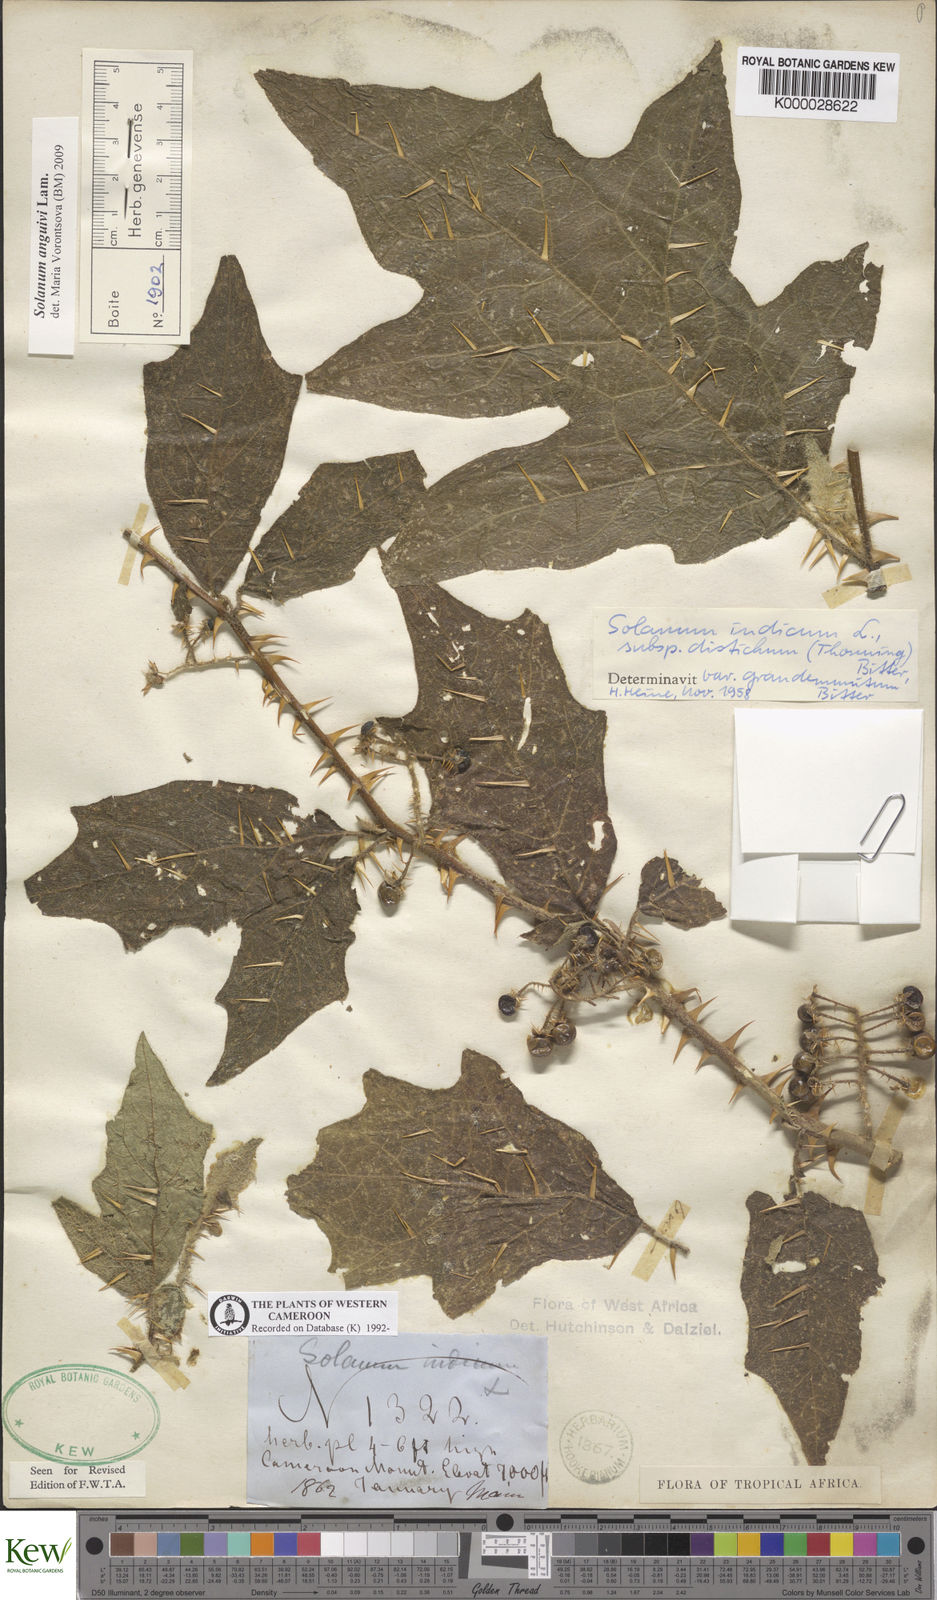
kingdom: Plantae
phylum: Tracheophyta
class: Magnoliopsida
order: Solanales
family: Solanaceae
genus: Solanum
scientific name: Solanum violaceum
